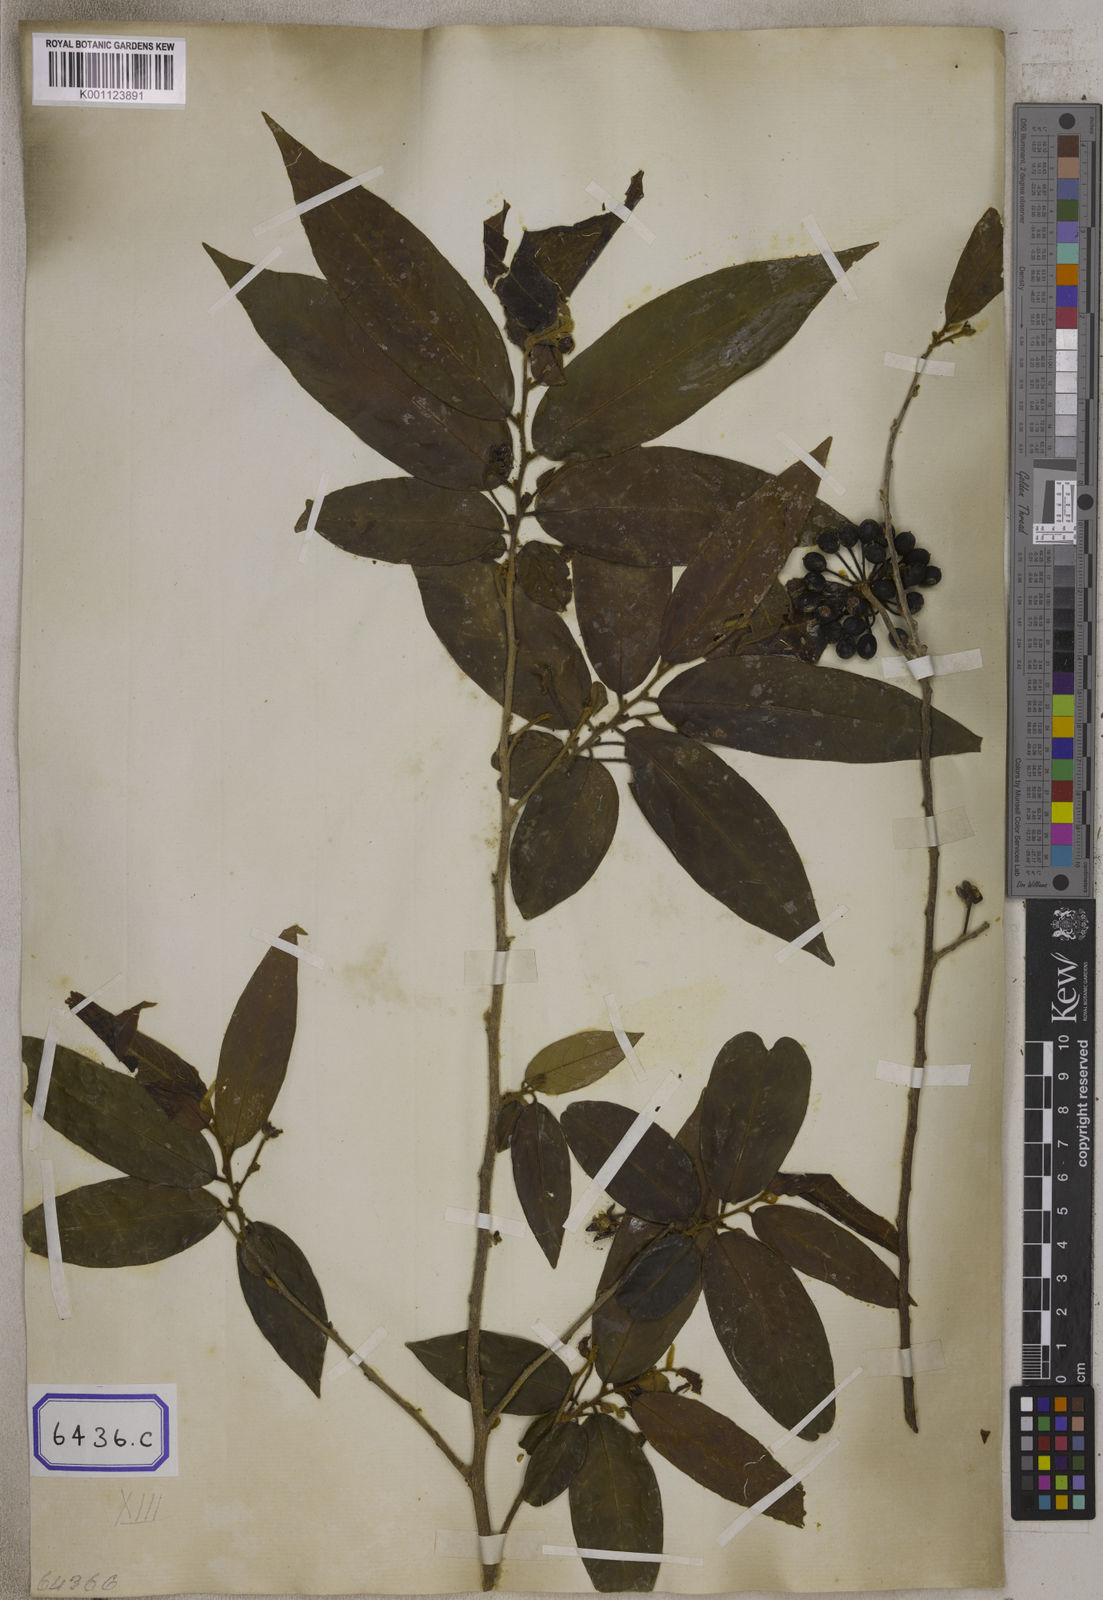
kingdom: Plantae
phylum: Tracheophyta
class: Magnoliopsida
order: Magnoliales
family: Annonaceae
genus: Hubera
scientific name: Hubera cerasoides
